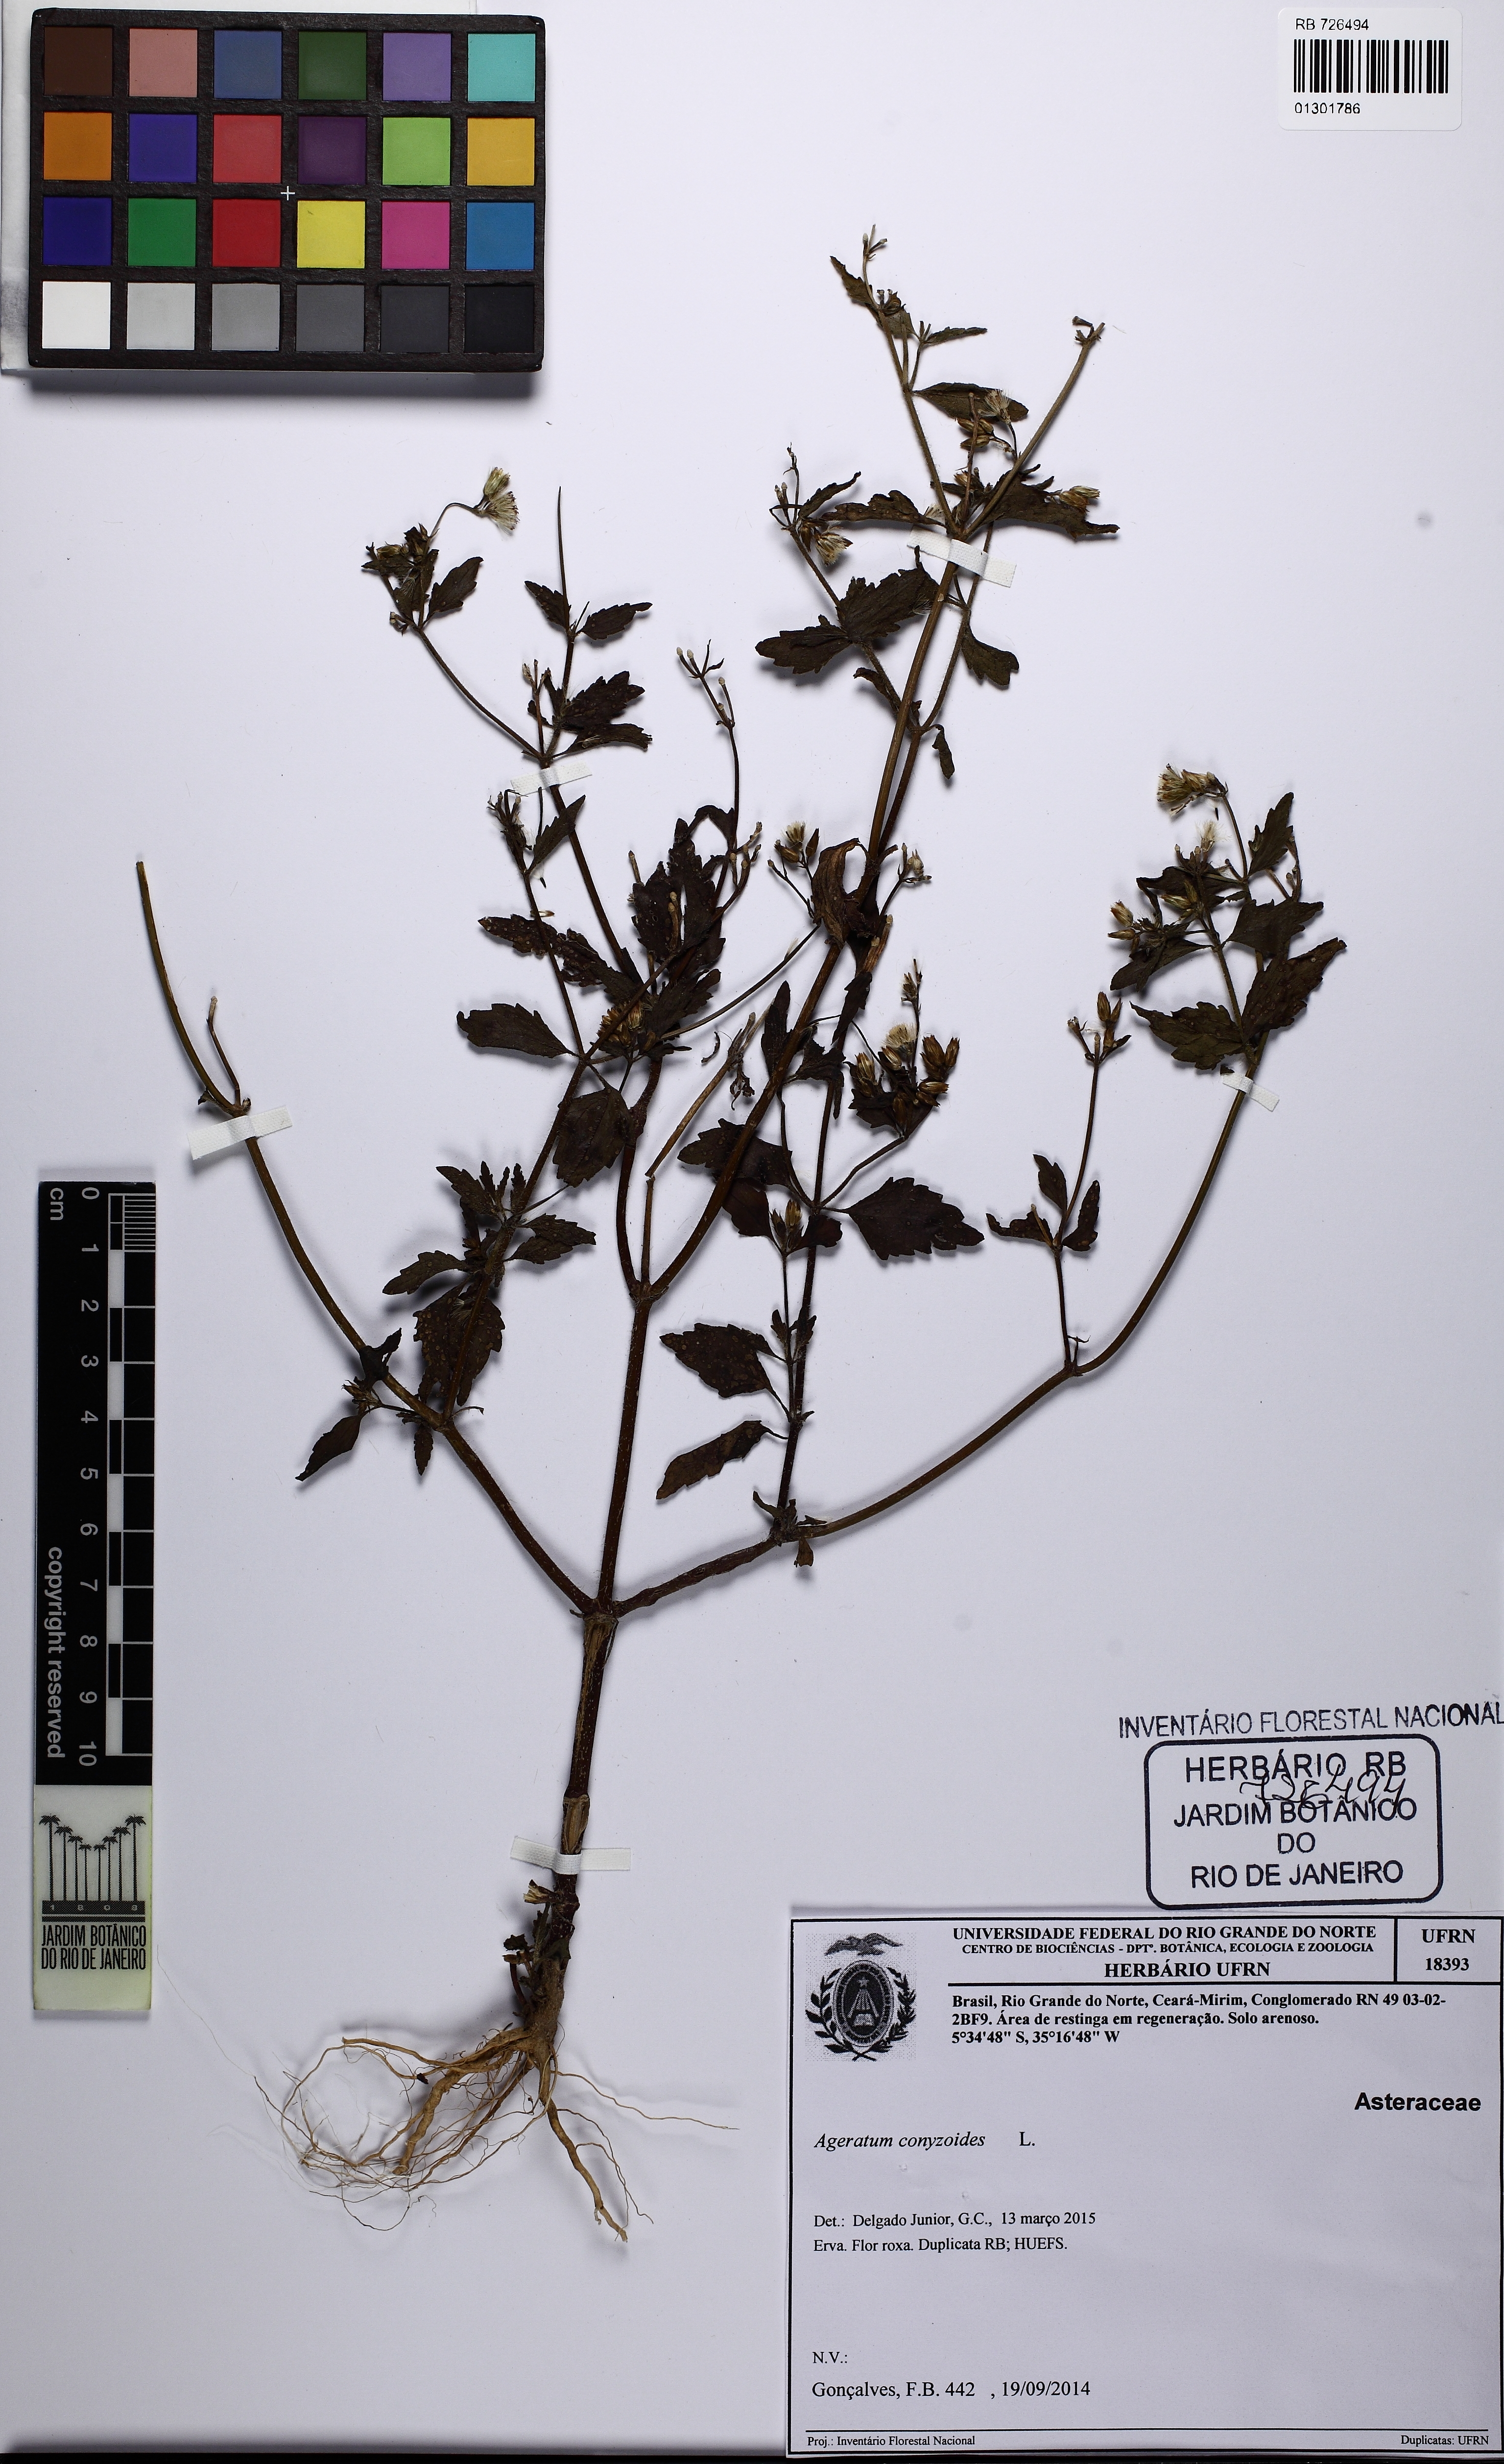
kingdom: Plantae
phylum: Tracheophyta
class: Magnoliopsida
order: Asterales
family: Asteraceae
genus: Ageratum
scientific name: Ageratum conyzoides
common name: Tropical whiteweed
